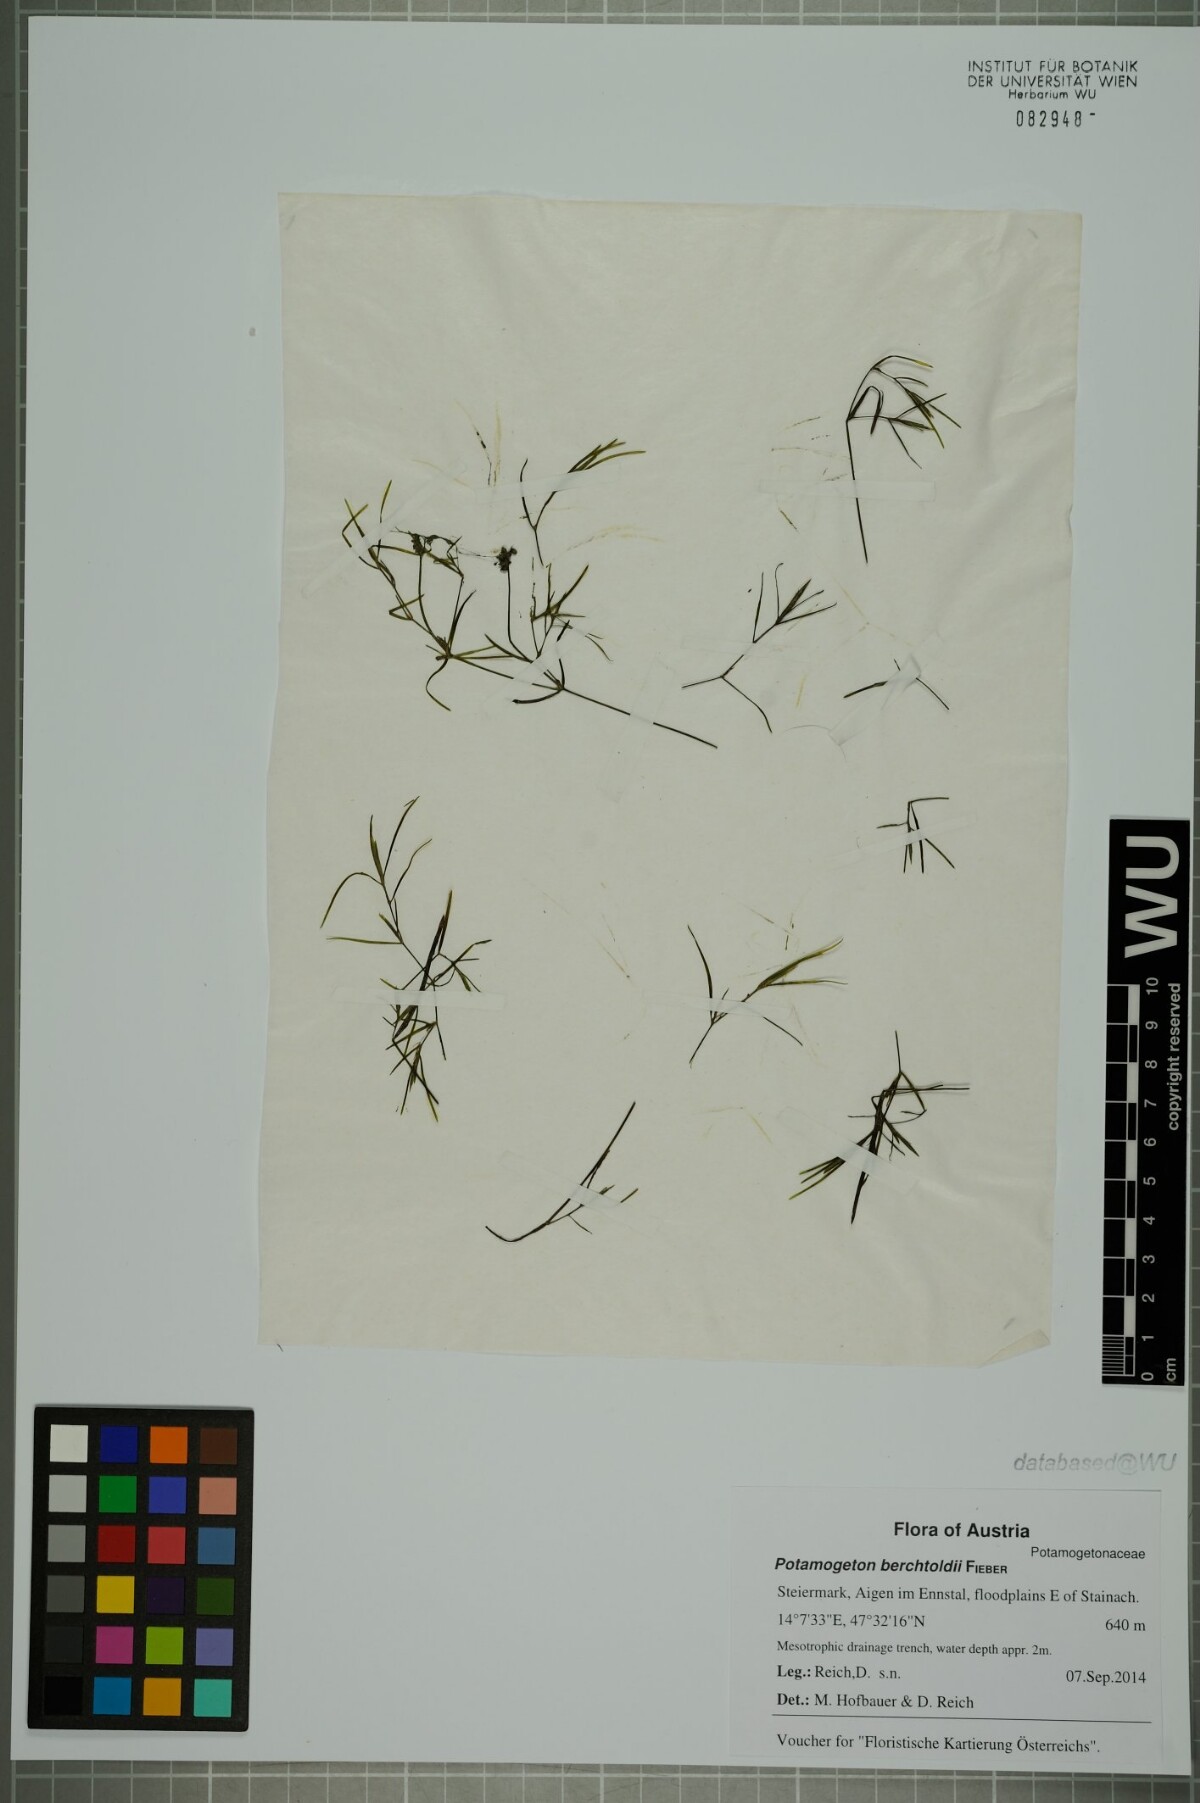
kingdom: Plantae
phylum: Tracheophyta
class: Liliopsida
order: Alismatales
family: Potamogetonaceae
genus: Potamogeton
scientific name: Potamogeton berchtoldii
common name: Small pondweed
